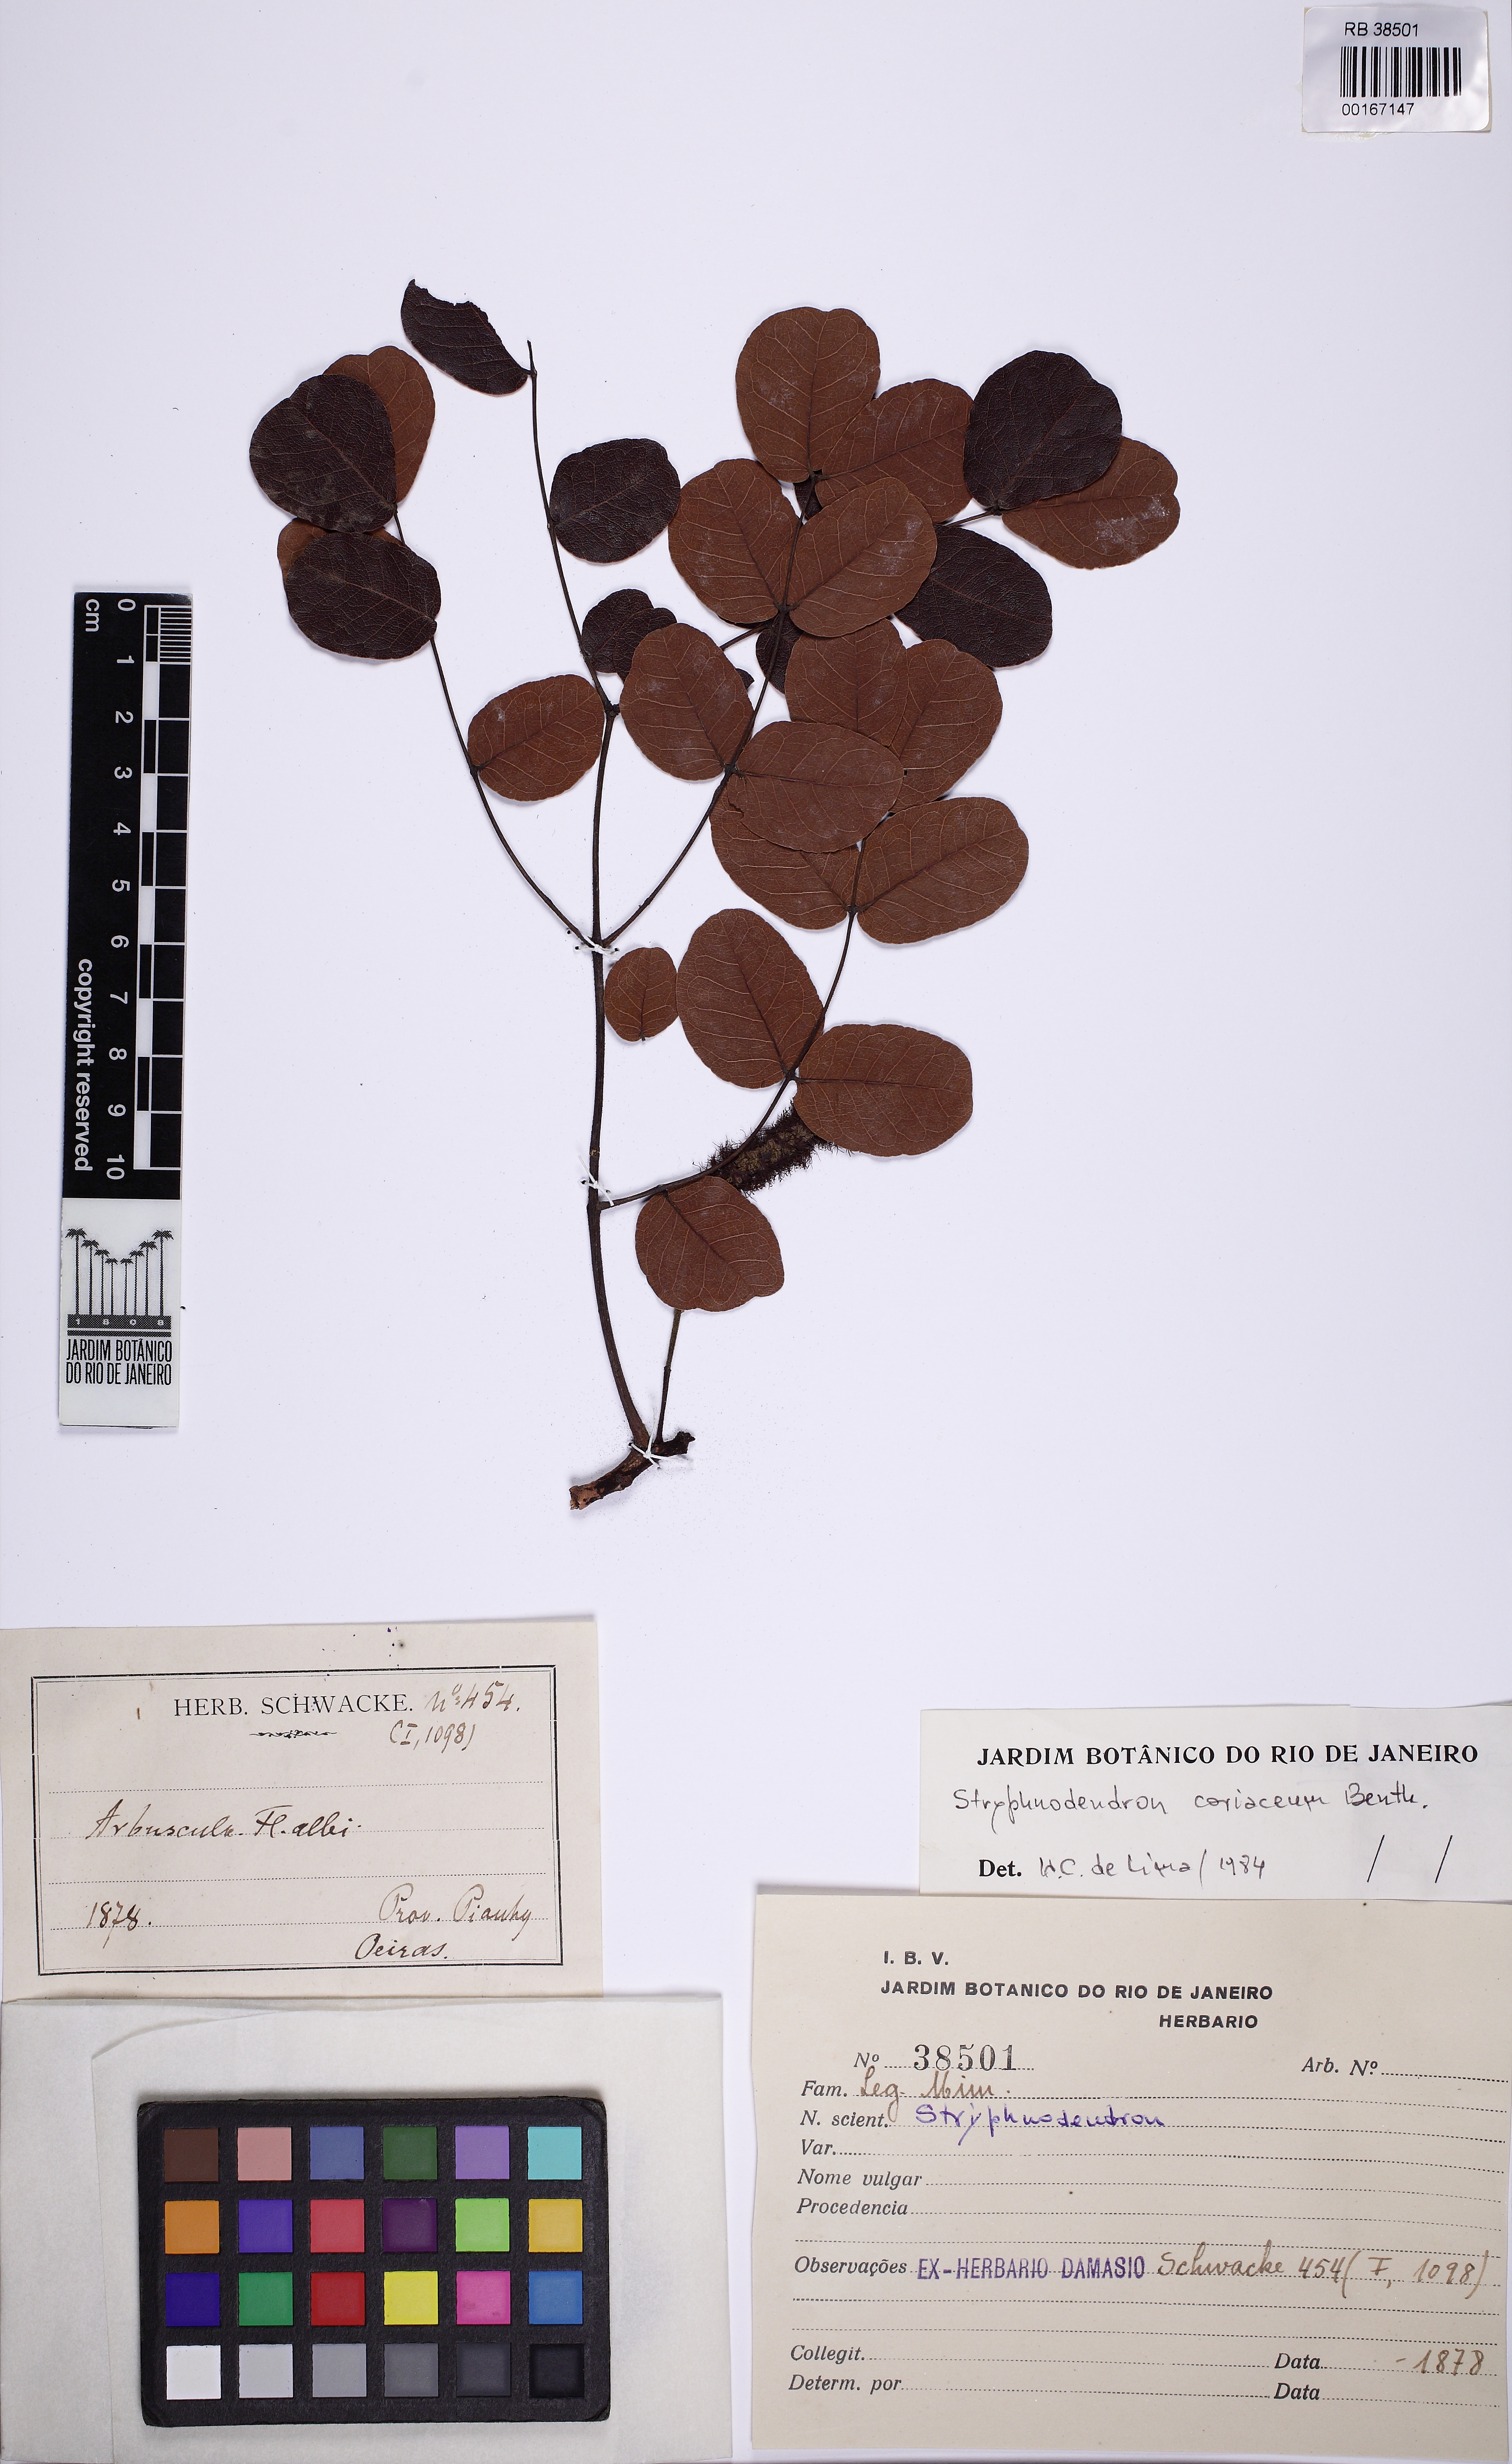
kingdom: Plantae
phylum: Tracheophyta
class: Magnoliopsida
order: Fabales
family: Fabaceae
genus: Stryphnodendron
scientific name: Stryphnodendron coriaceum
